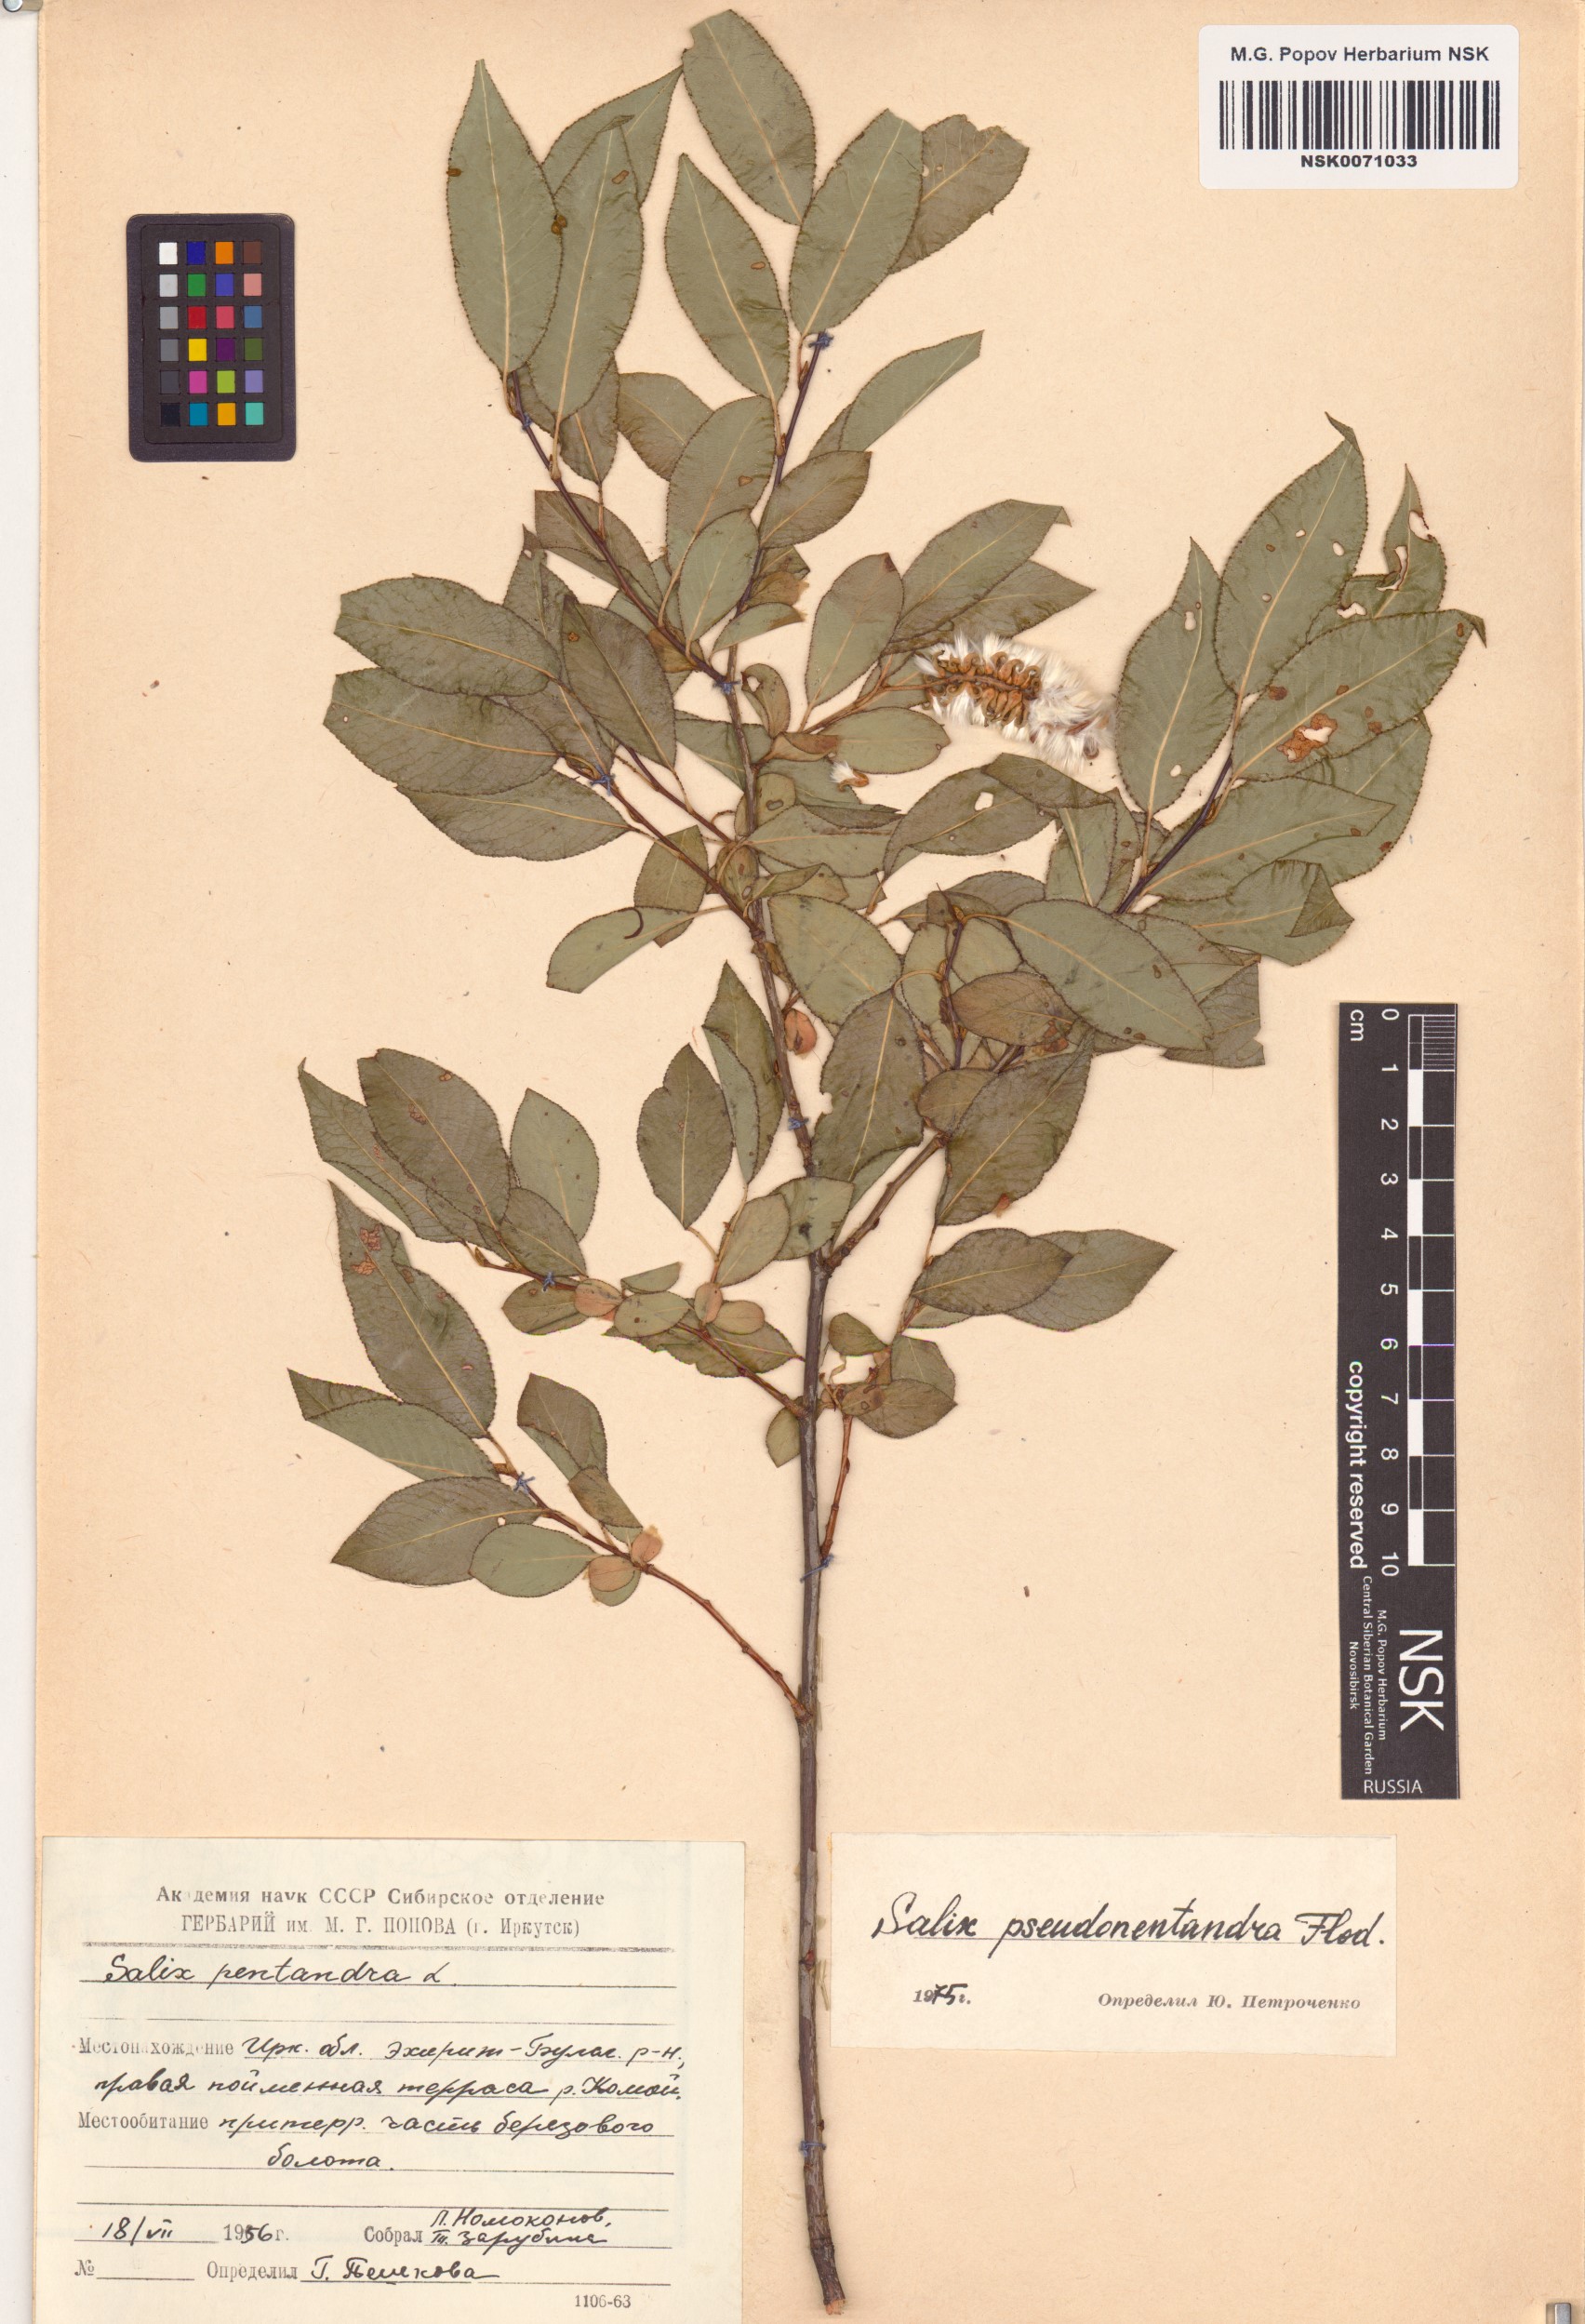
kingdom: Plantae
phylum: Tracheophyta
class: Magnoliopsida
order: Malpighiales
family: Salicaceae
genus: Salix
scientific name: Salix pseudopentandra
